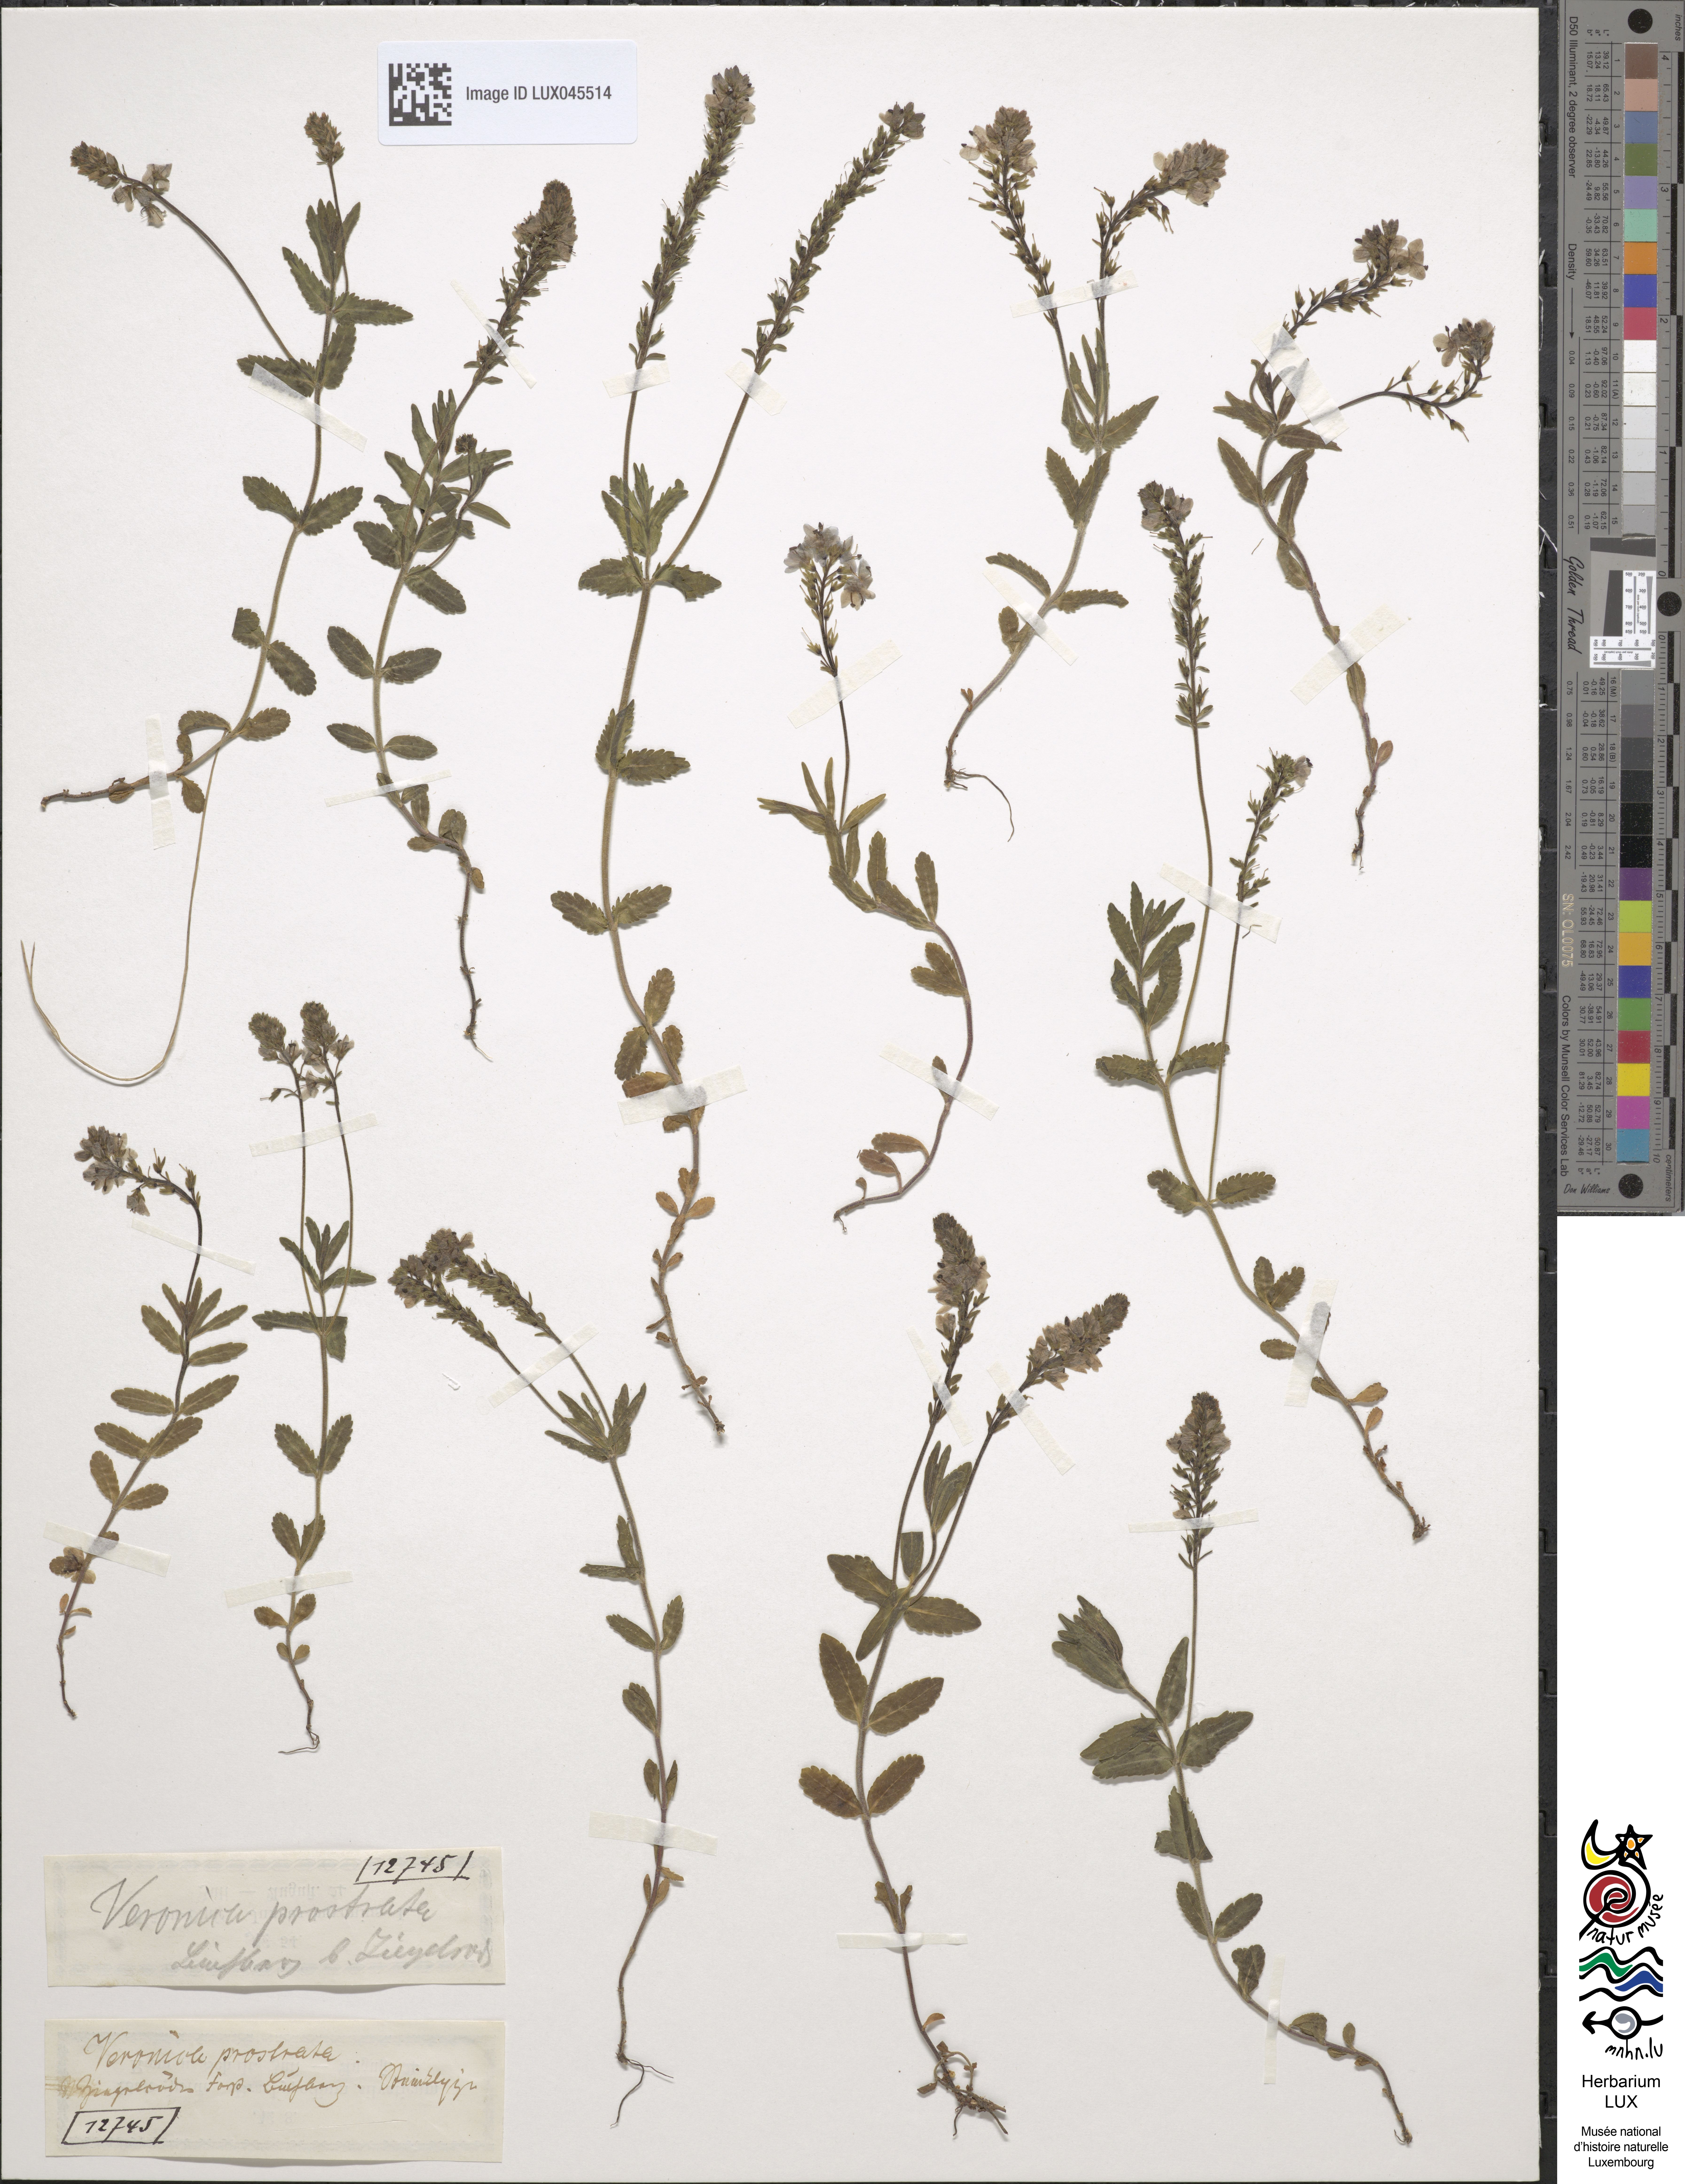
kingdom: Plantae
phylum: Tracheophyta
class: Magnoliopsida
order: Lamiales
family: Plantaginaceae
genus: Veronica
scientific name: Veronica prostrata
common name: Prostrate speedwell
